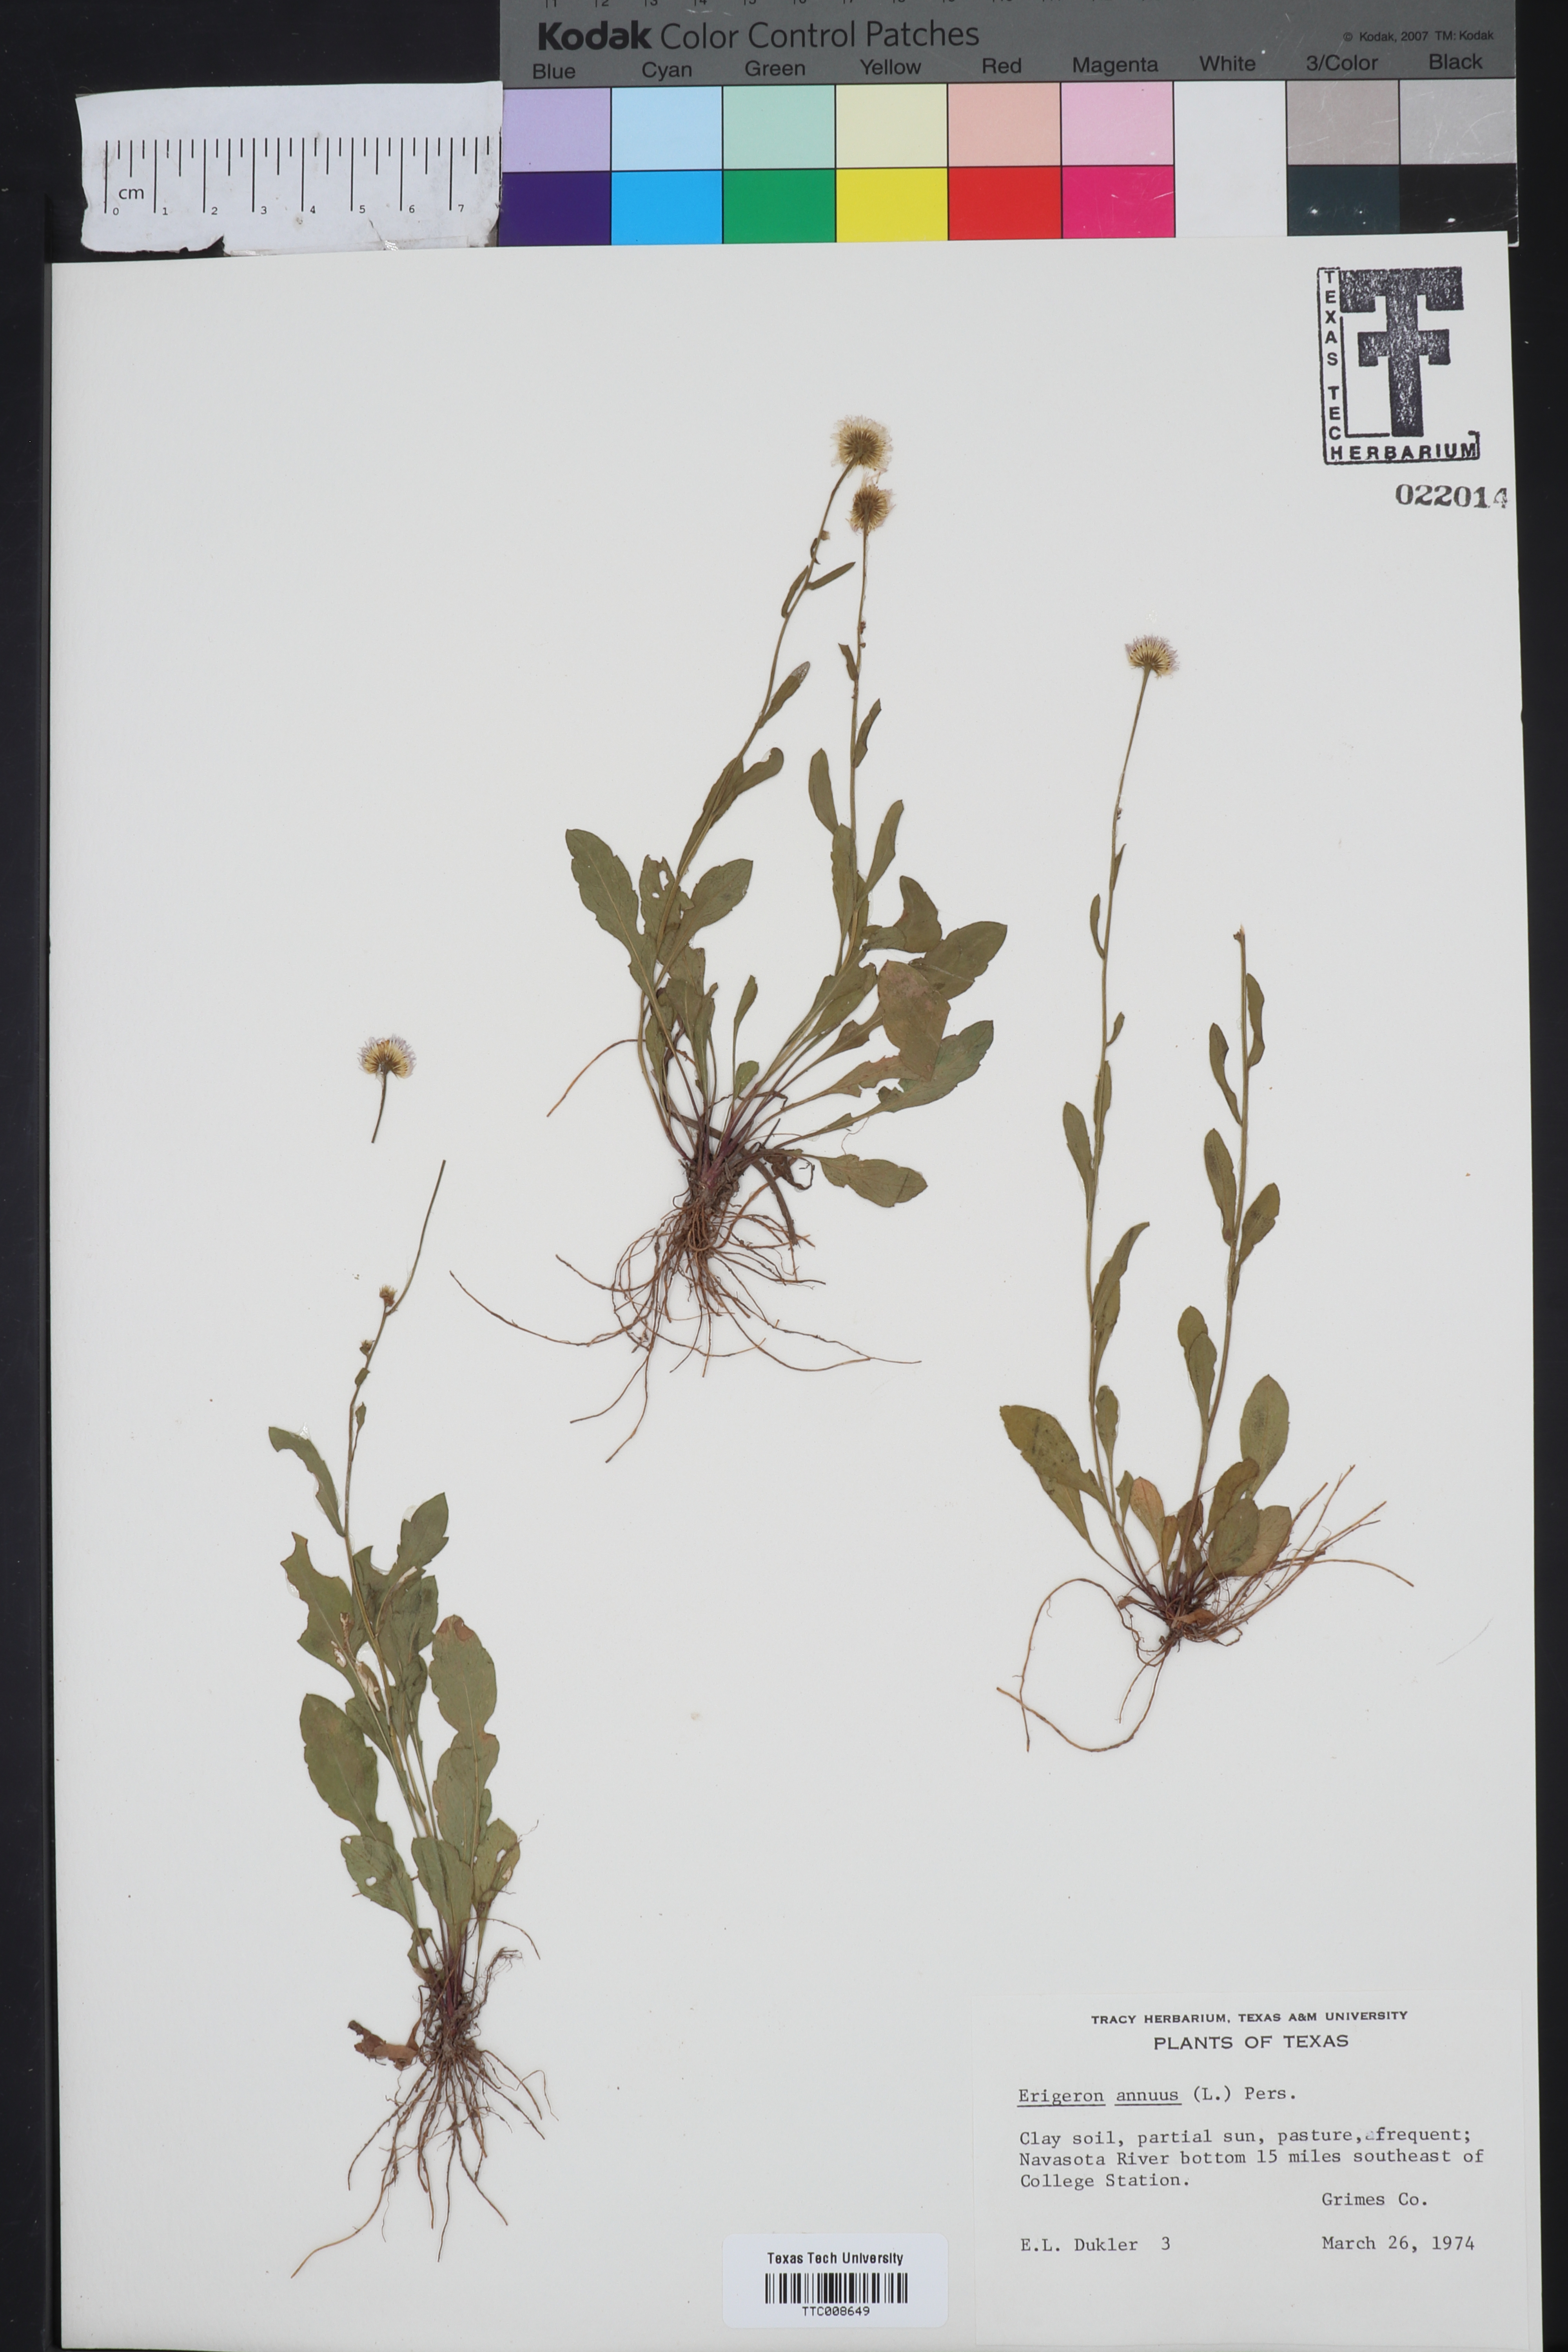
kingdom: Plantae
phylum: Tracheophyta
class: Magnoliopsida
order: Asterales
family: Asteraceae
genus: Erigeron
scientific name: Erigeron annuus
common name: Tall fleabane
